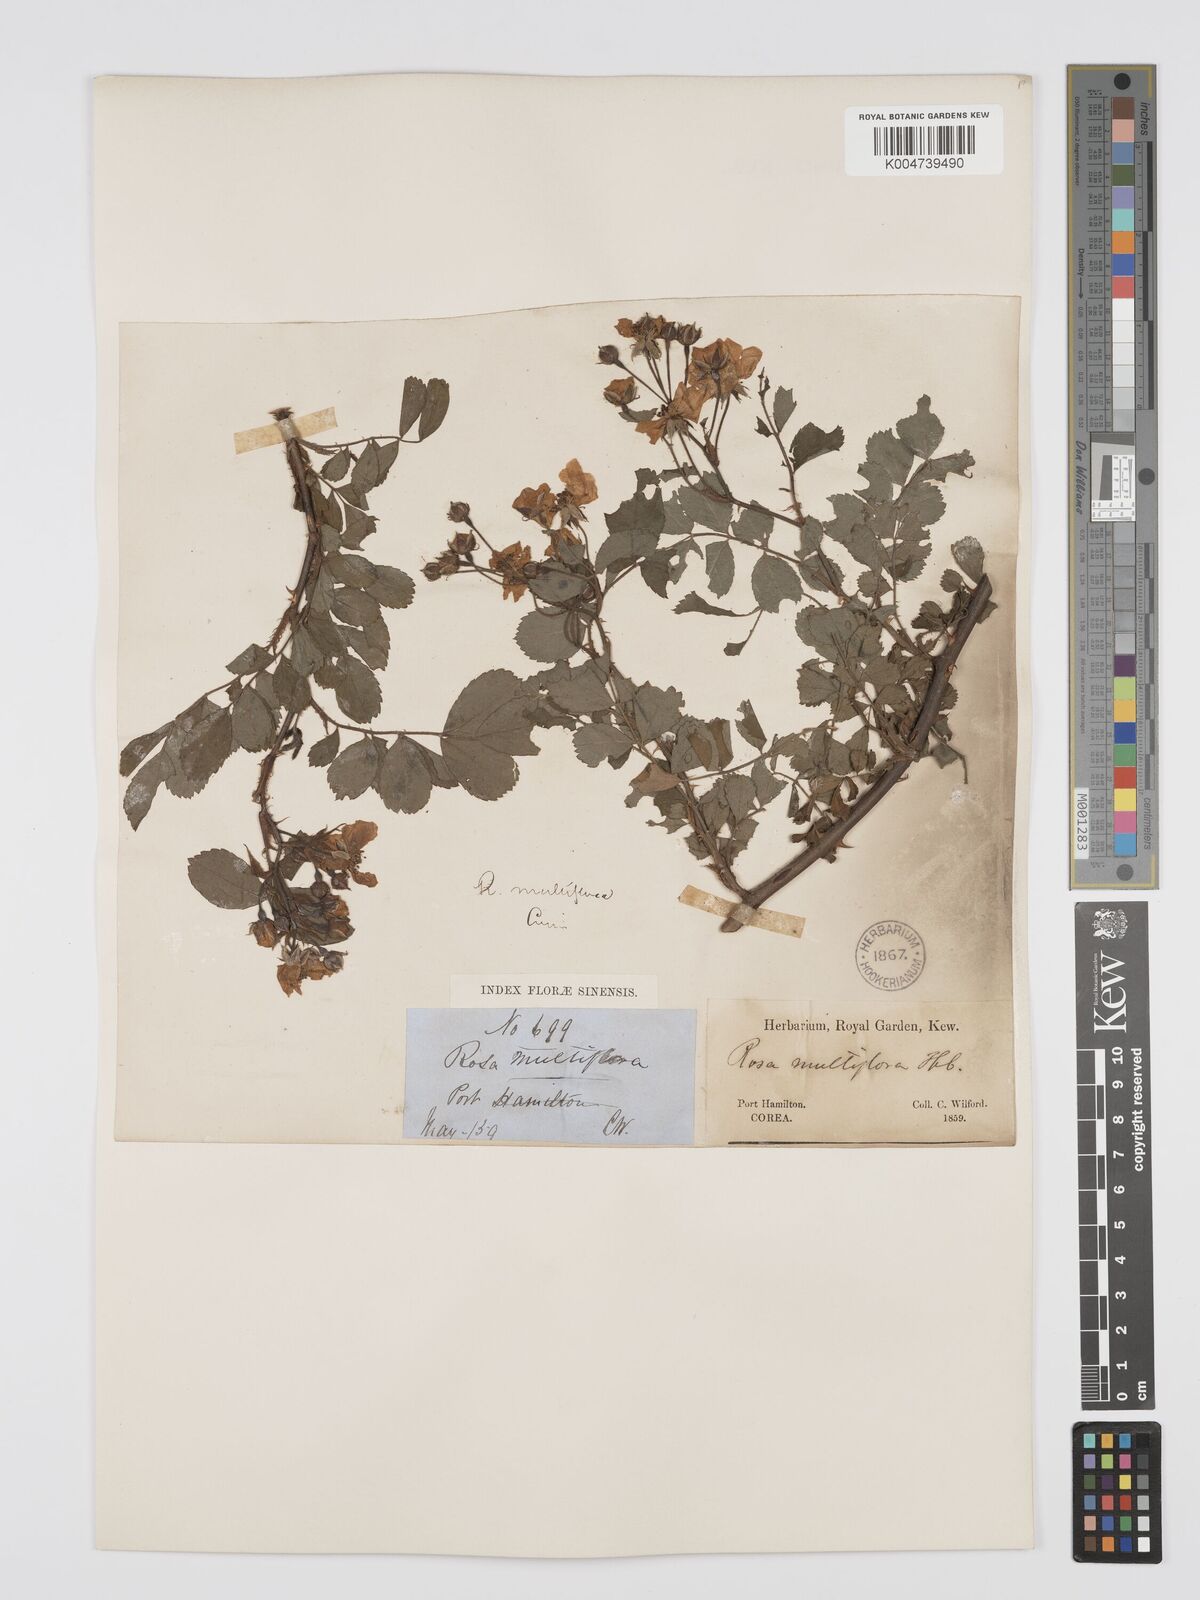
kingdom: Plantae
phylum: Tracheophyta
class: Magnoliopsida
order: Rosales
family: Rosaceae
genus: Rosa
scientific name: Rosa
